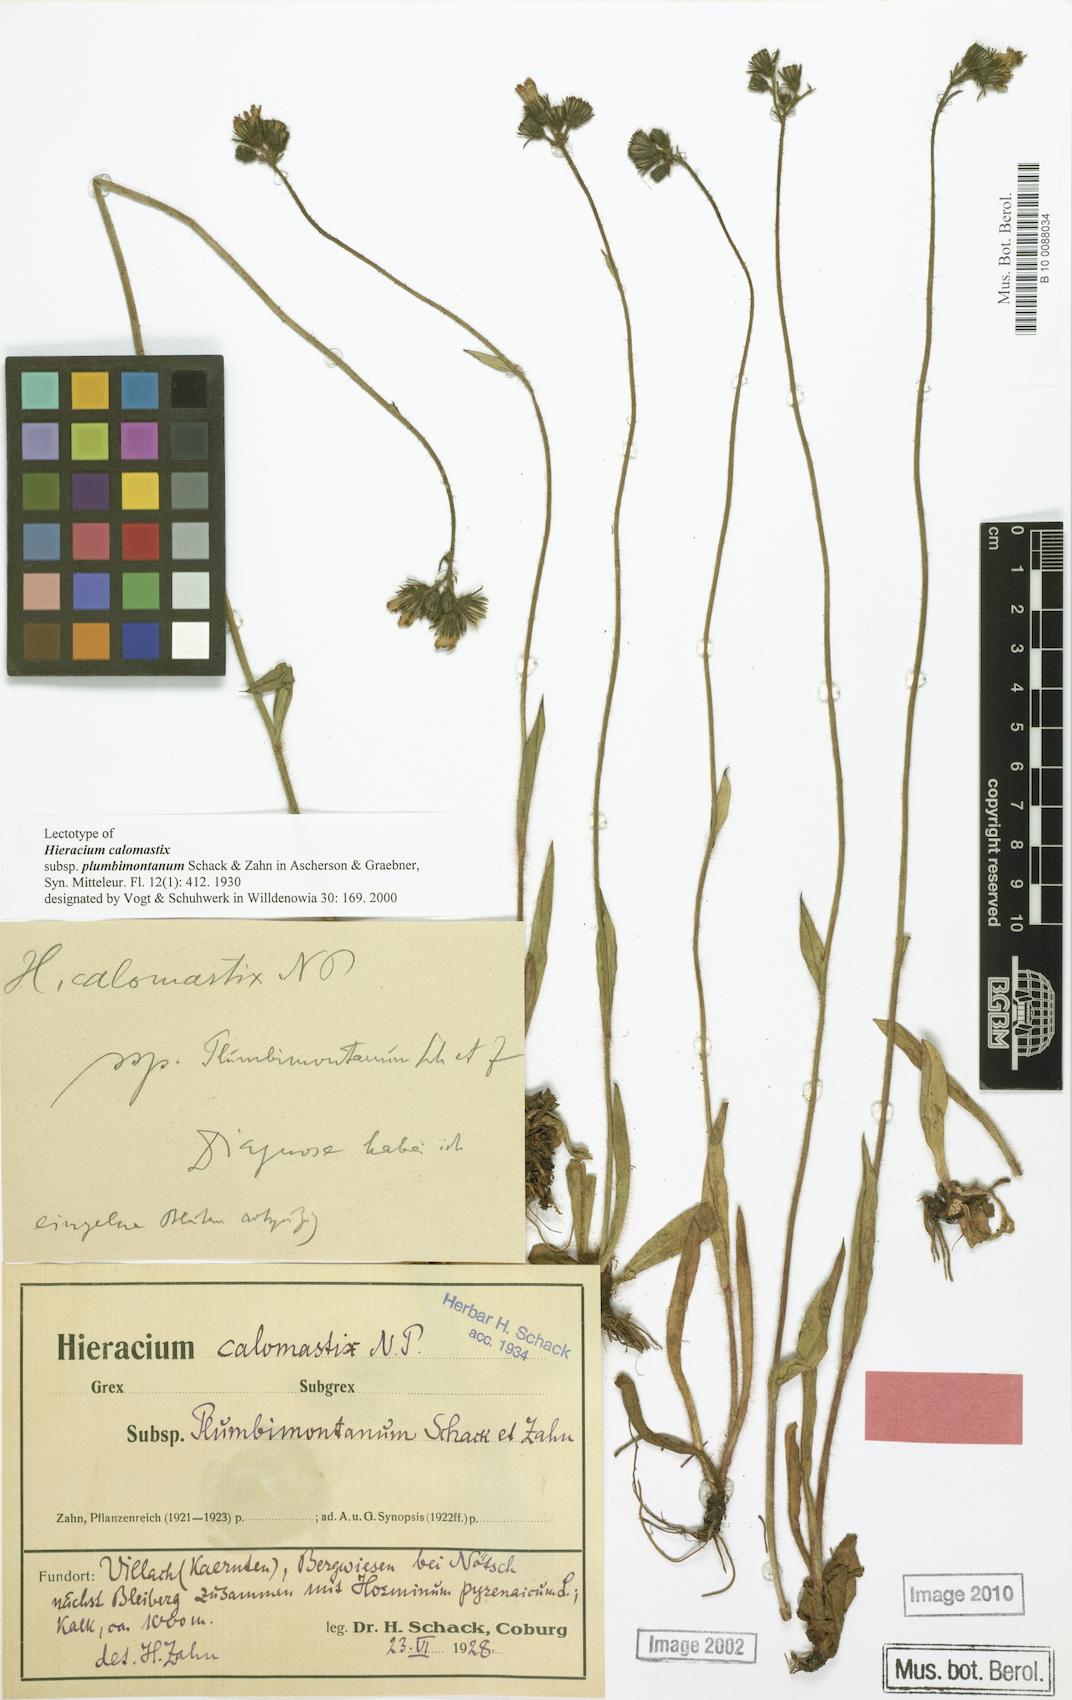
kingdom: Plantae
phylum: Tracheophyta
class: Magnoliopsida
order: Asterales
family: Asteraceae
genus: Pilosella
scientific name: Pilosella calomastix
